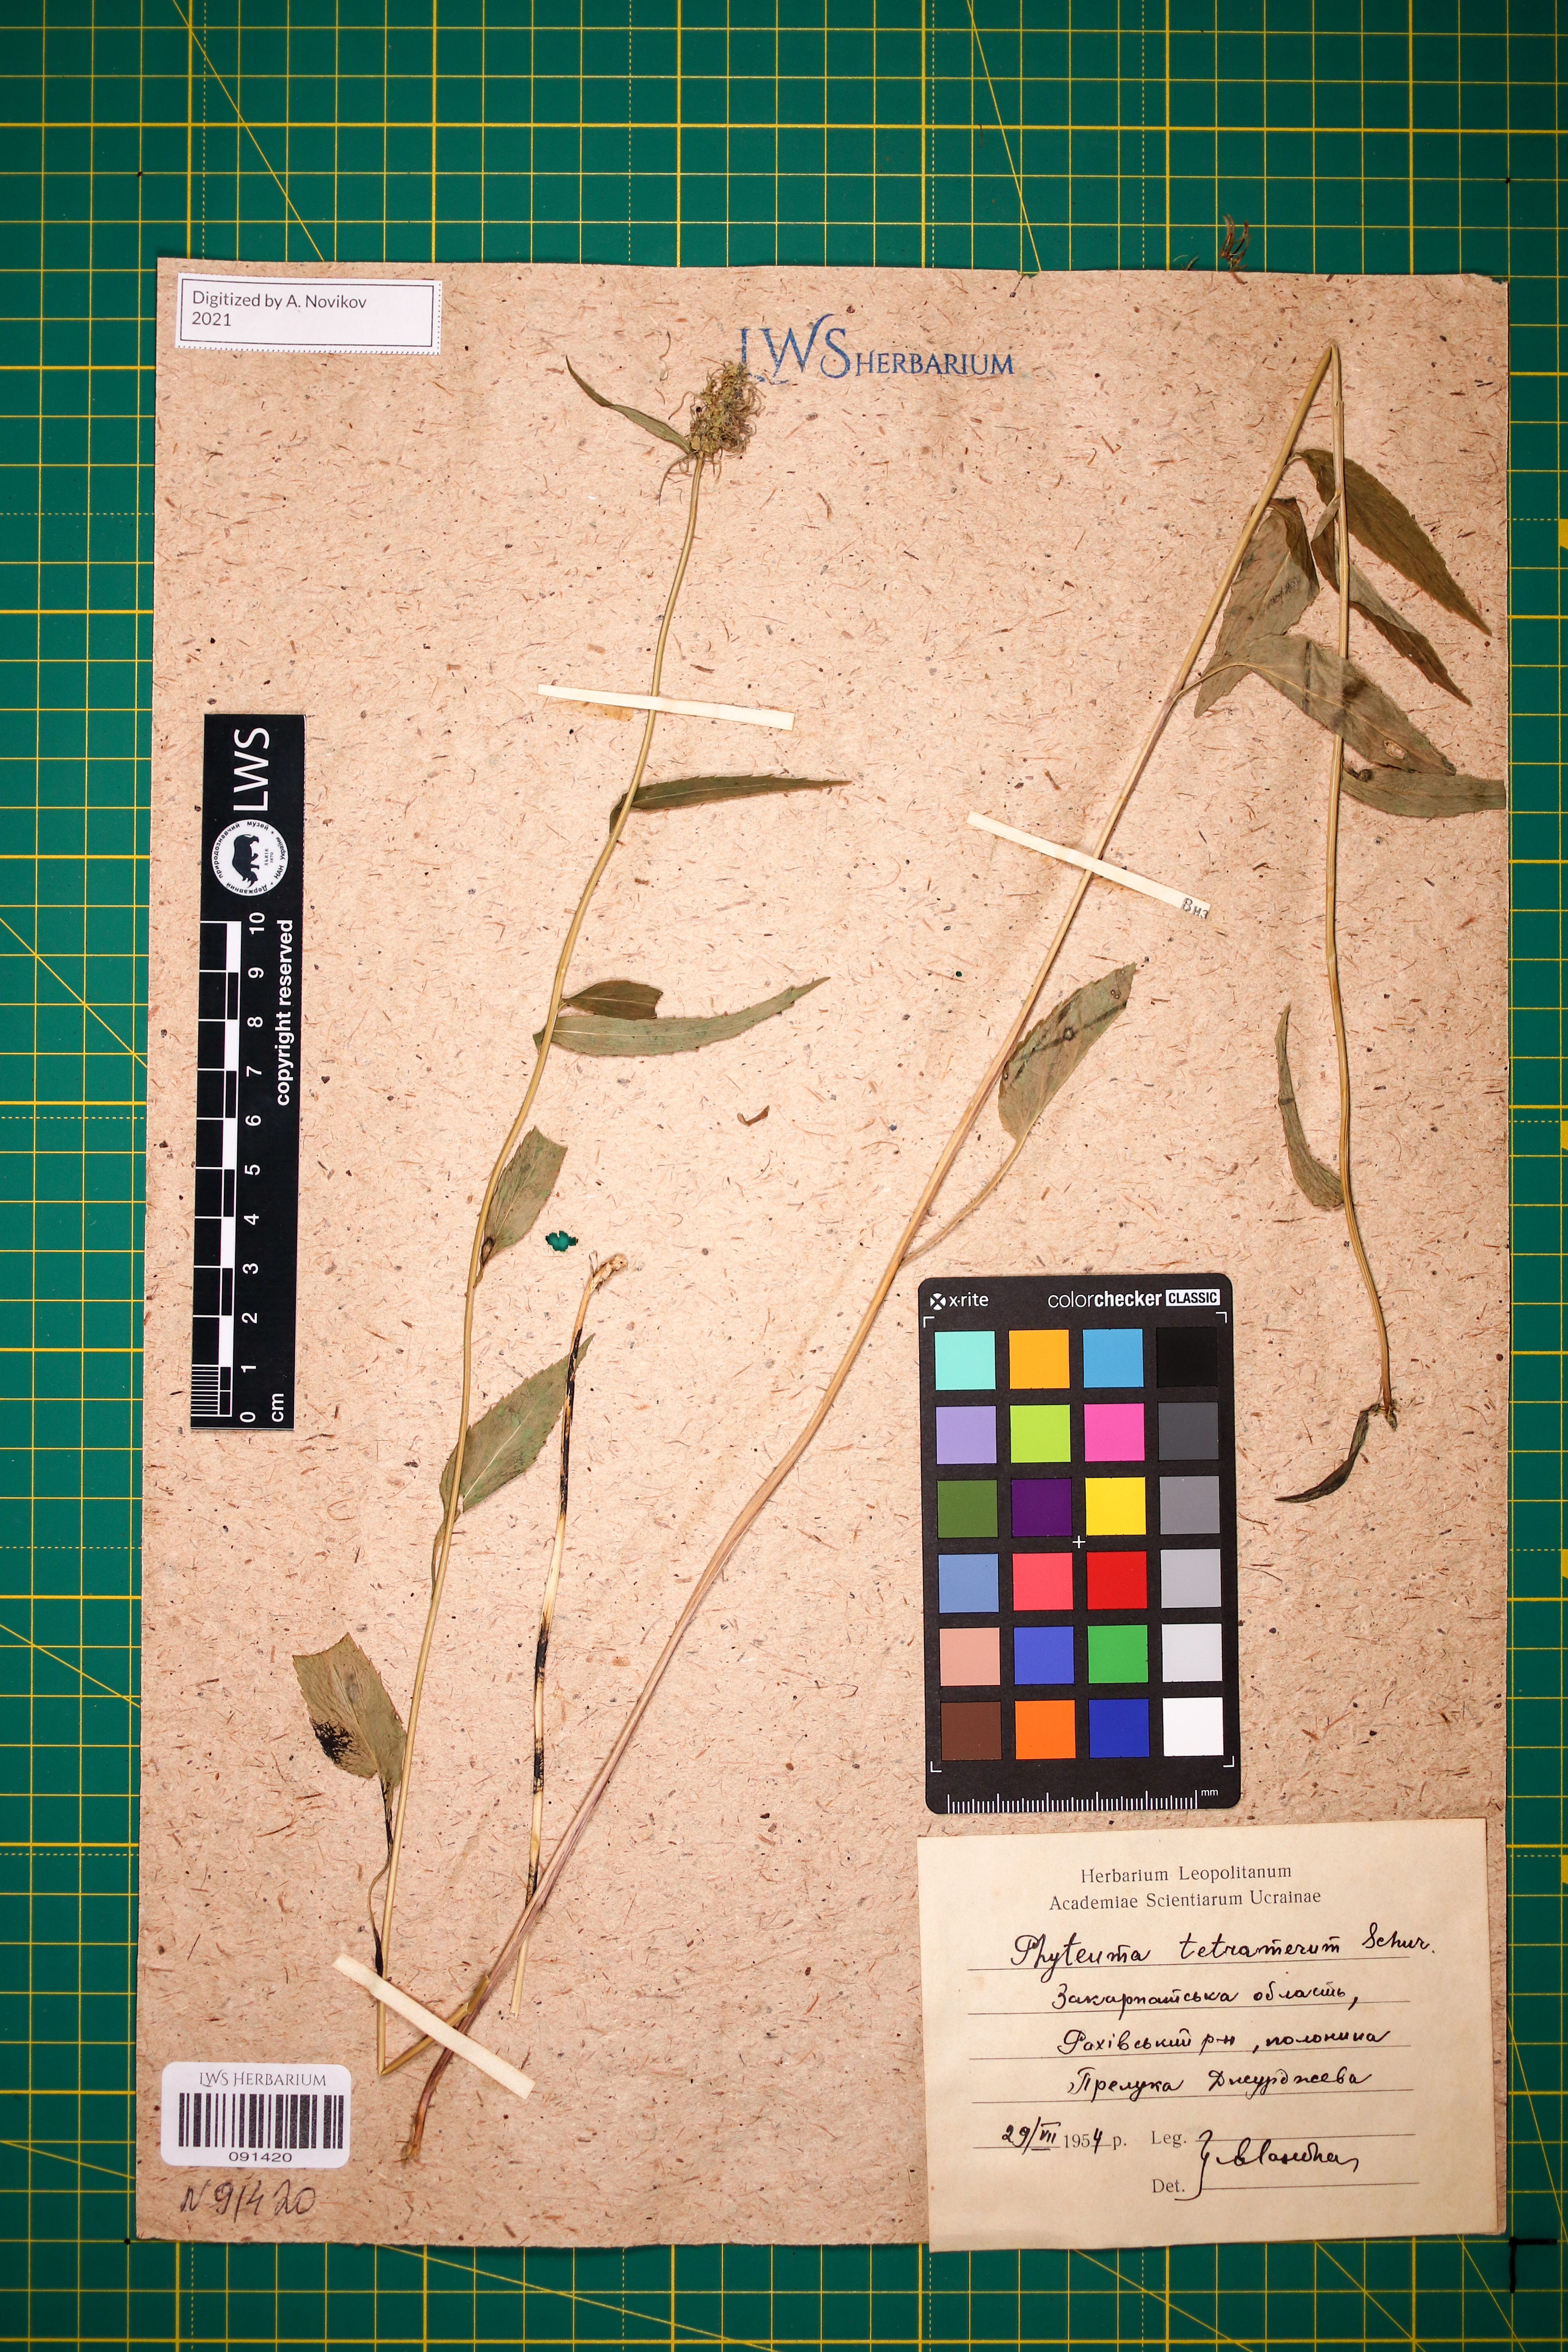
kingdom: Plantae
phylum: Tracheophyta
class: Magnoliopsida
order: Asterales
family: Campanulaceae
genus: Phyteuma
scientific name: Phyteuma tetramerum
